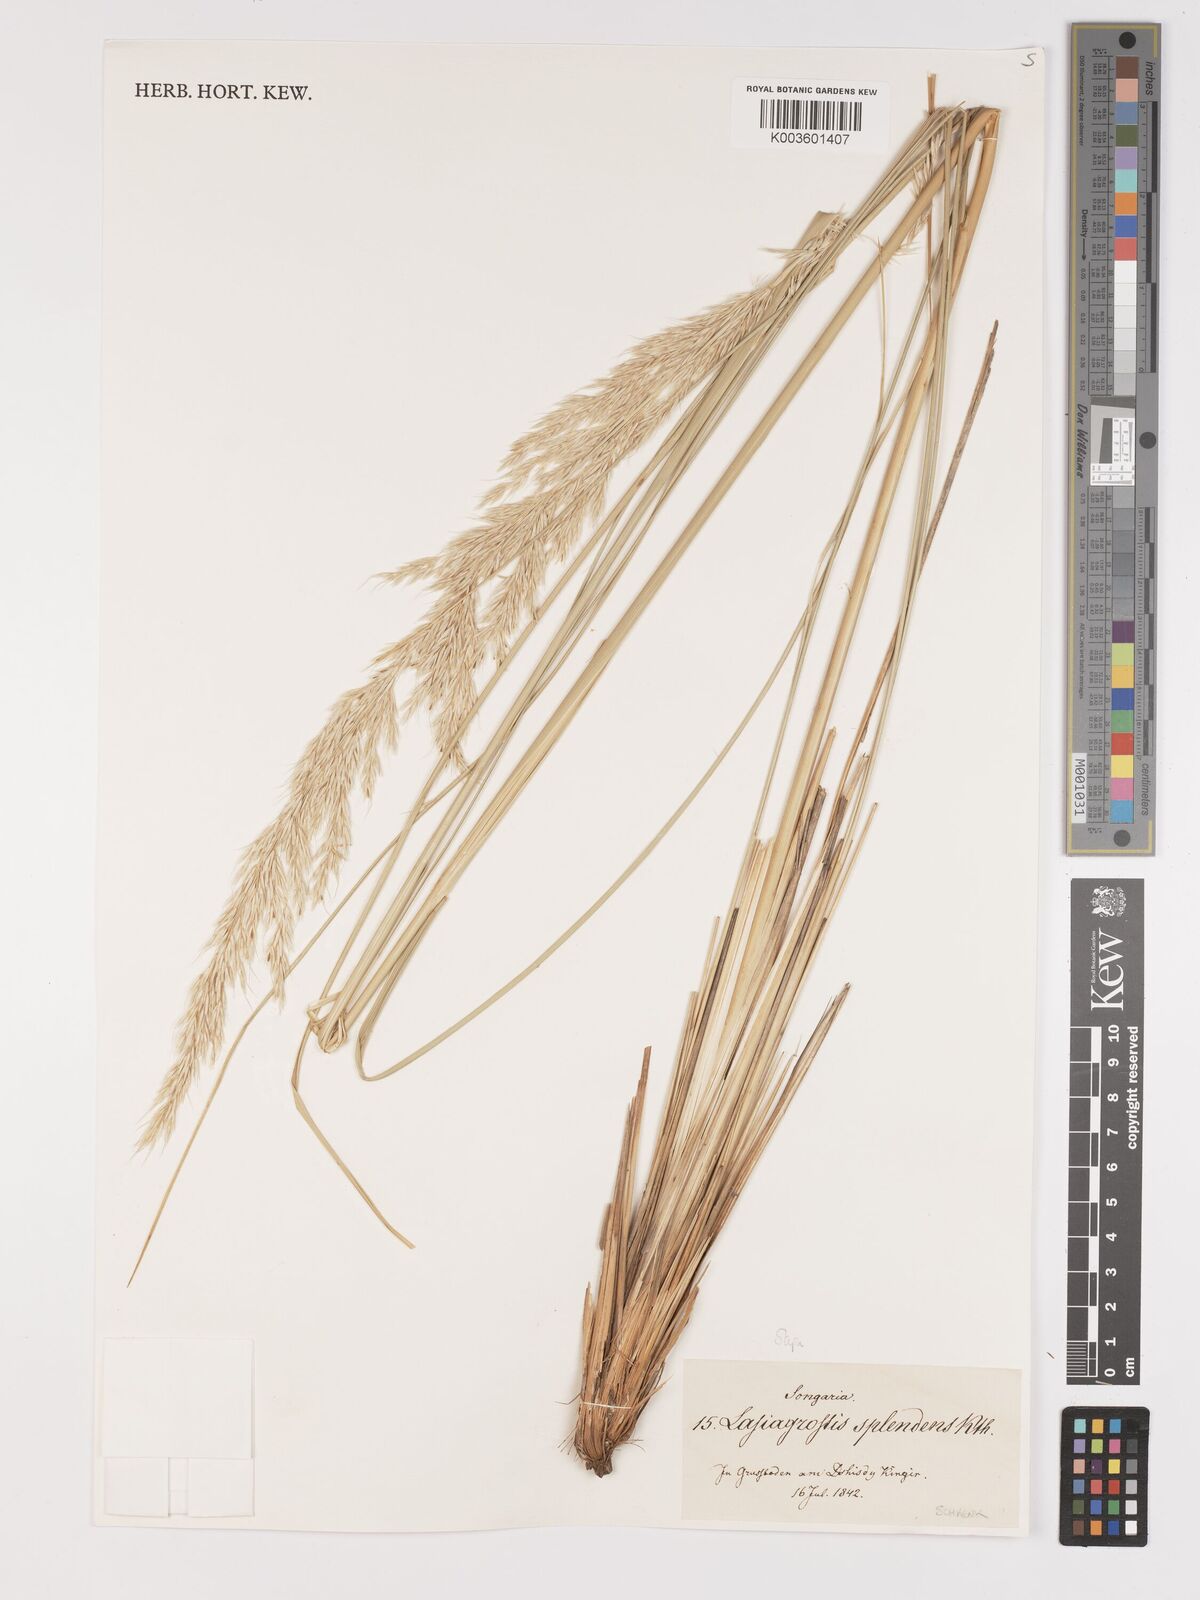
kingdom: Plantae
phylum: Tracheophyta
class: Liliopsida
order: Poales
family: Poaceae
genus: Neotrinia
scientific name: Neotrinia splendens
